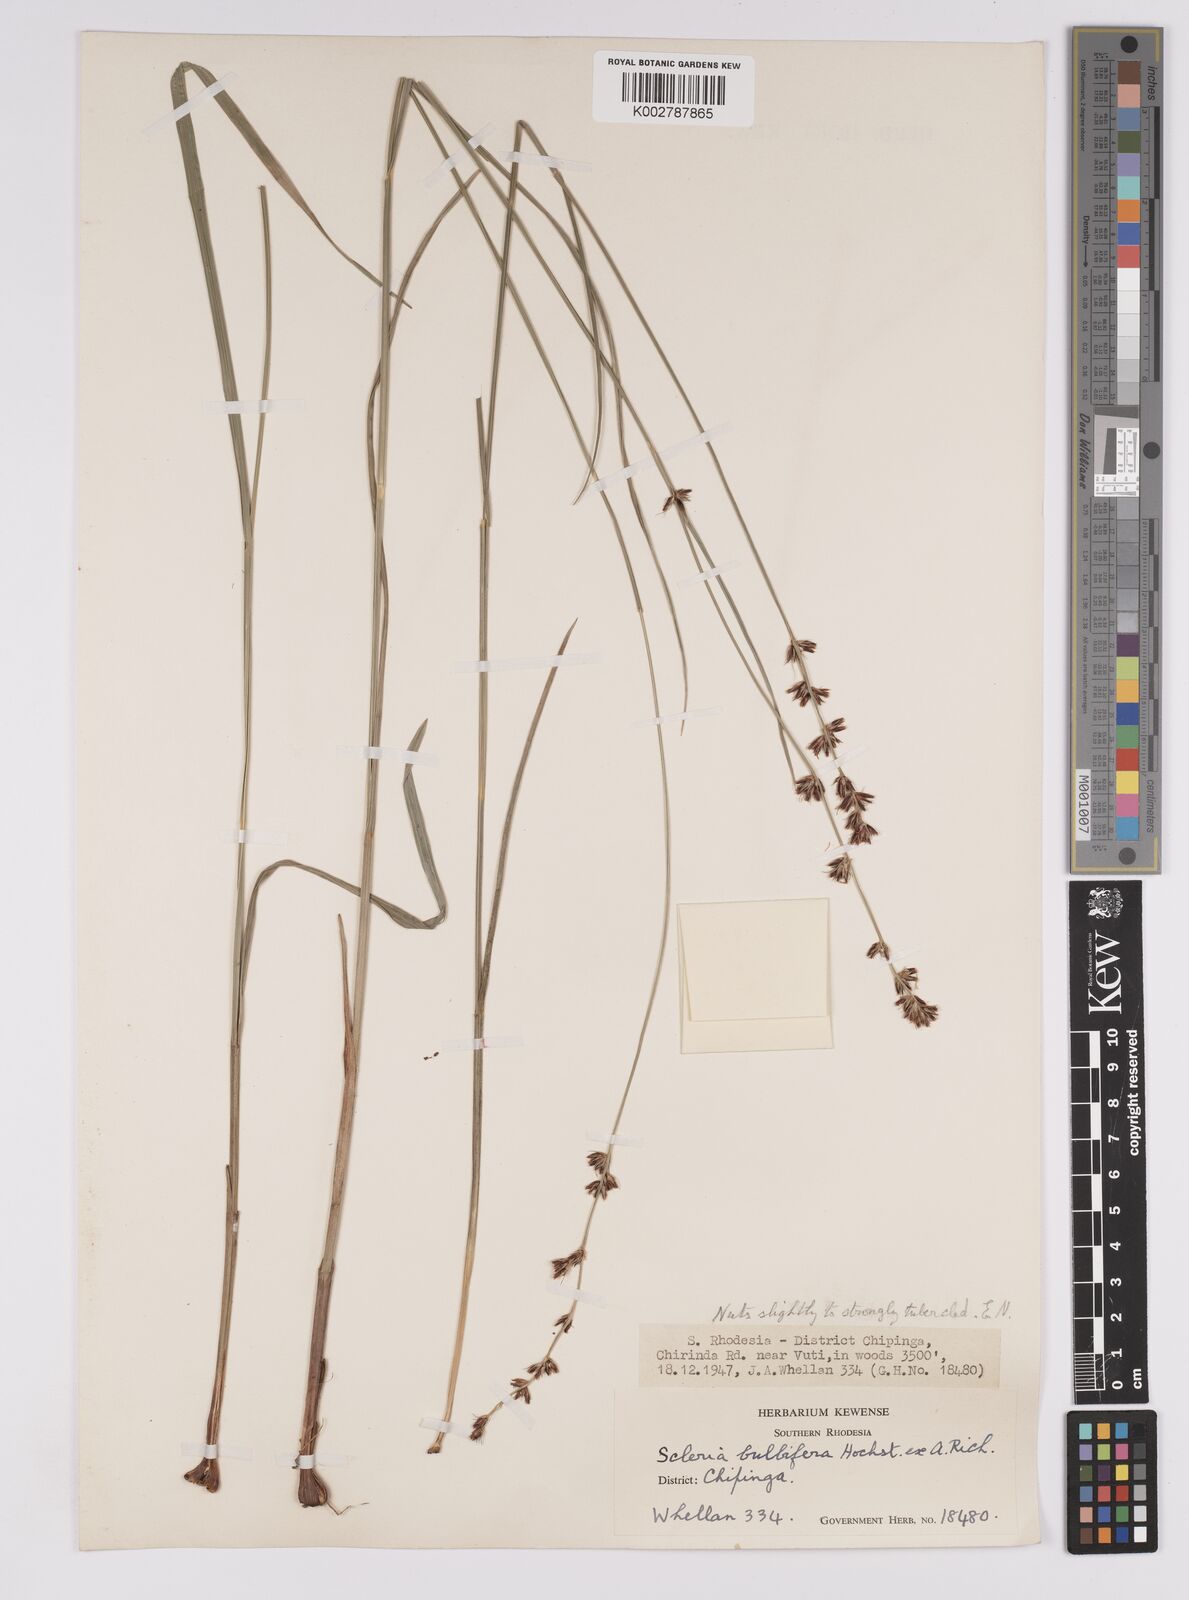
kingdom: Plantae
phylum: Tracheophyta
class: Liliopsida
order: Poales
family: Cyperaceae
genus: Scleria
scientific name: Scleria bulbifera
